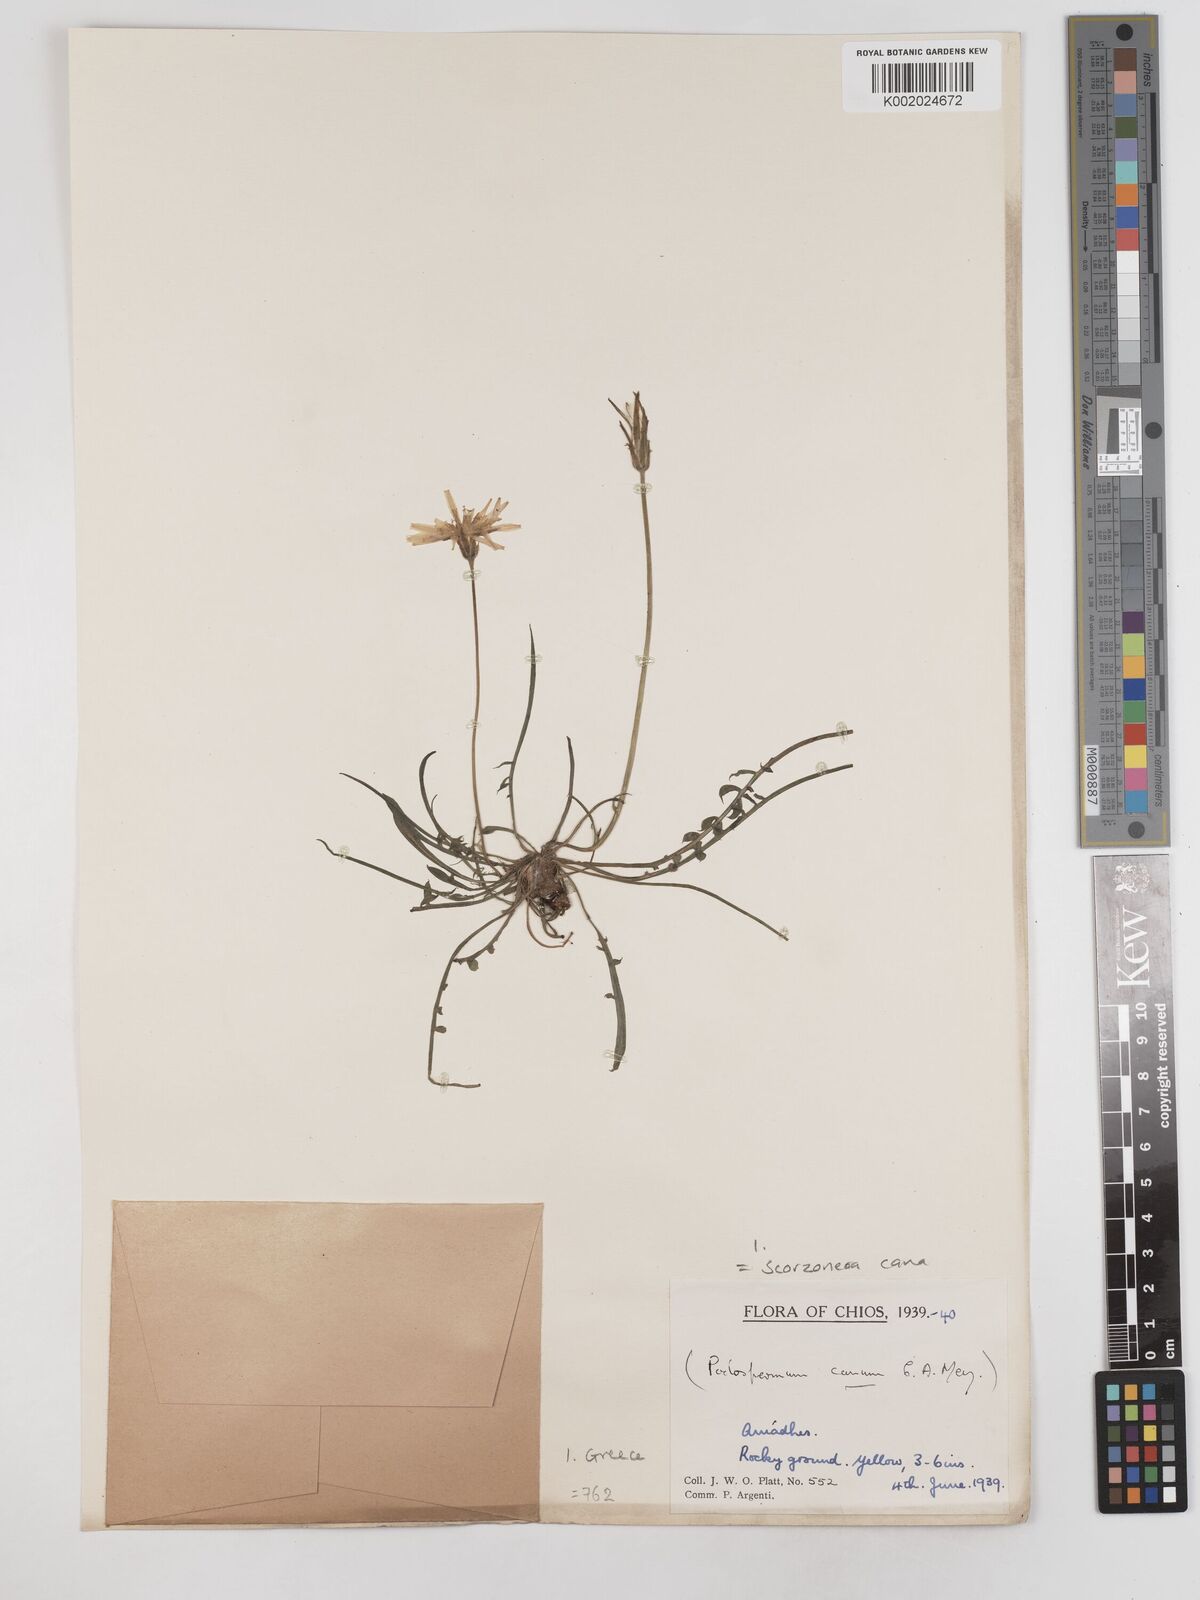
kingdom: Plantae
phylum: Tracheophyta
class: Magnoliopsida
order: Asterales
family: Asteraceae
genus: Scorzonera
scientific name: Scorzonera cana
